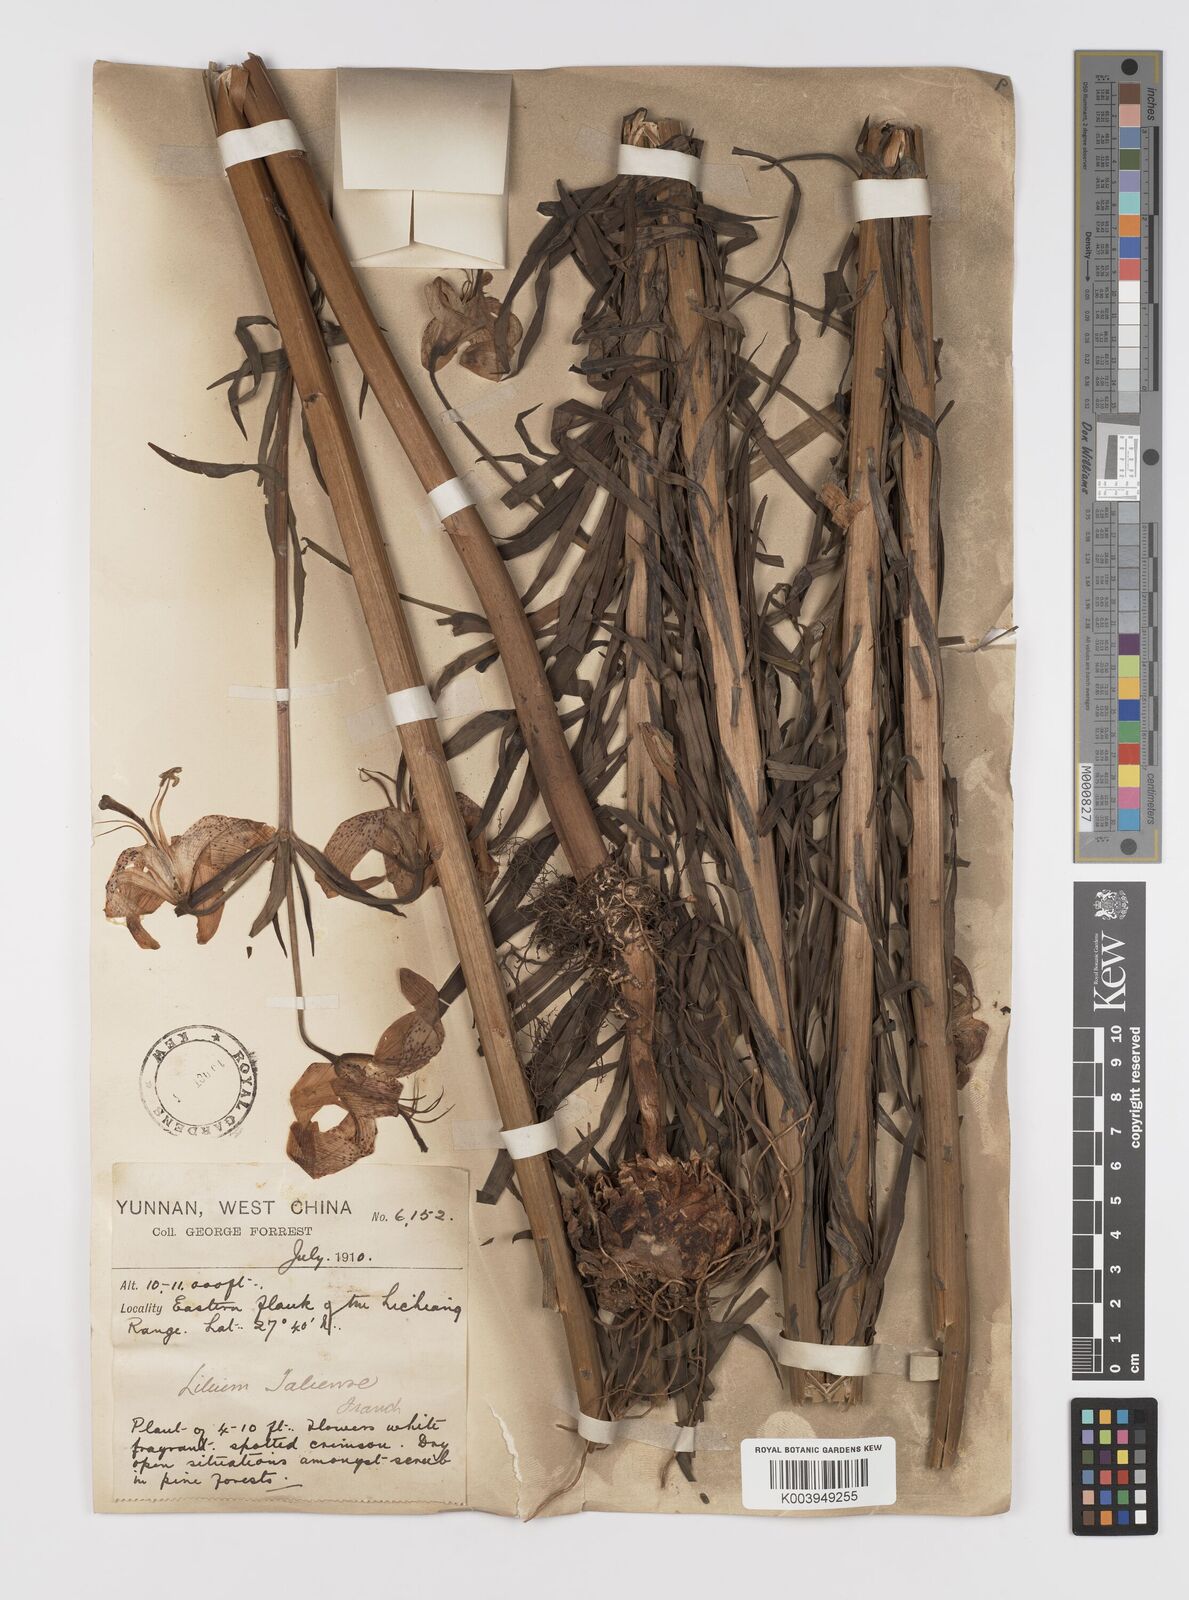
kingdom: Plantae
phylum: Tracheophyta
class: Liliopsida
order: Liliales
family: Liliaceae
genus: Lilium
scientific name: Lilium taliense
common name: Tali lily
